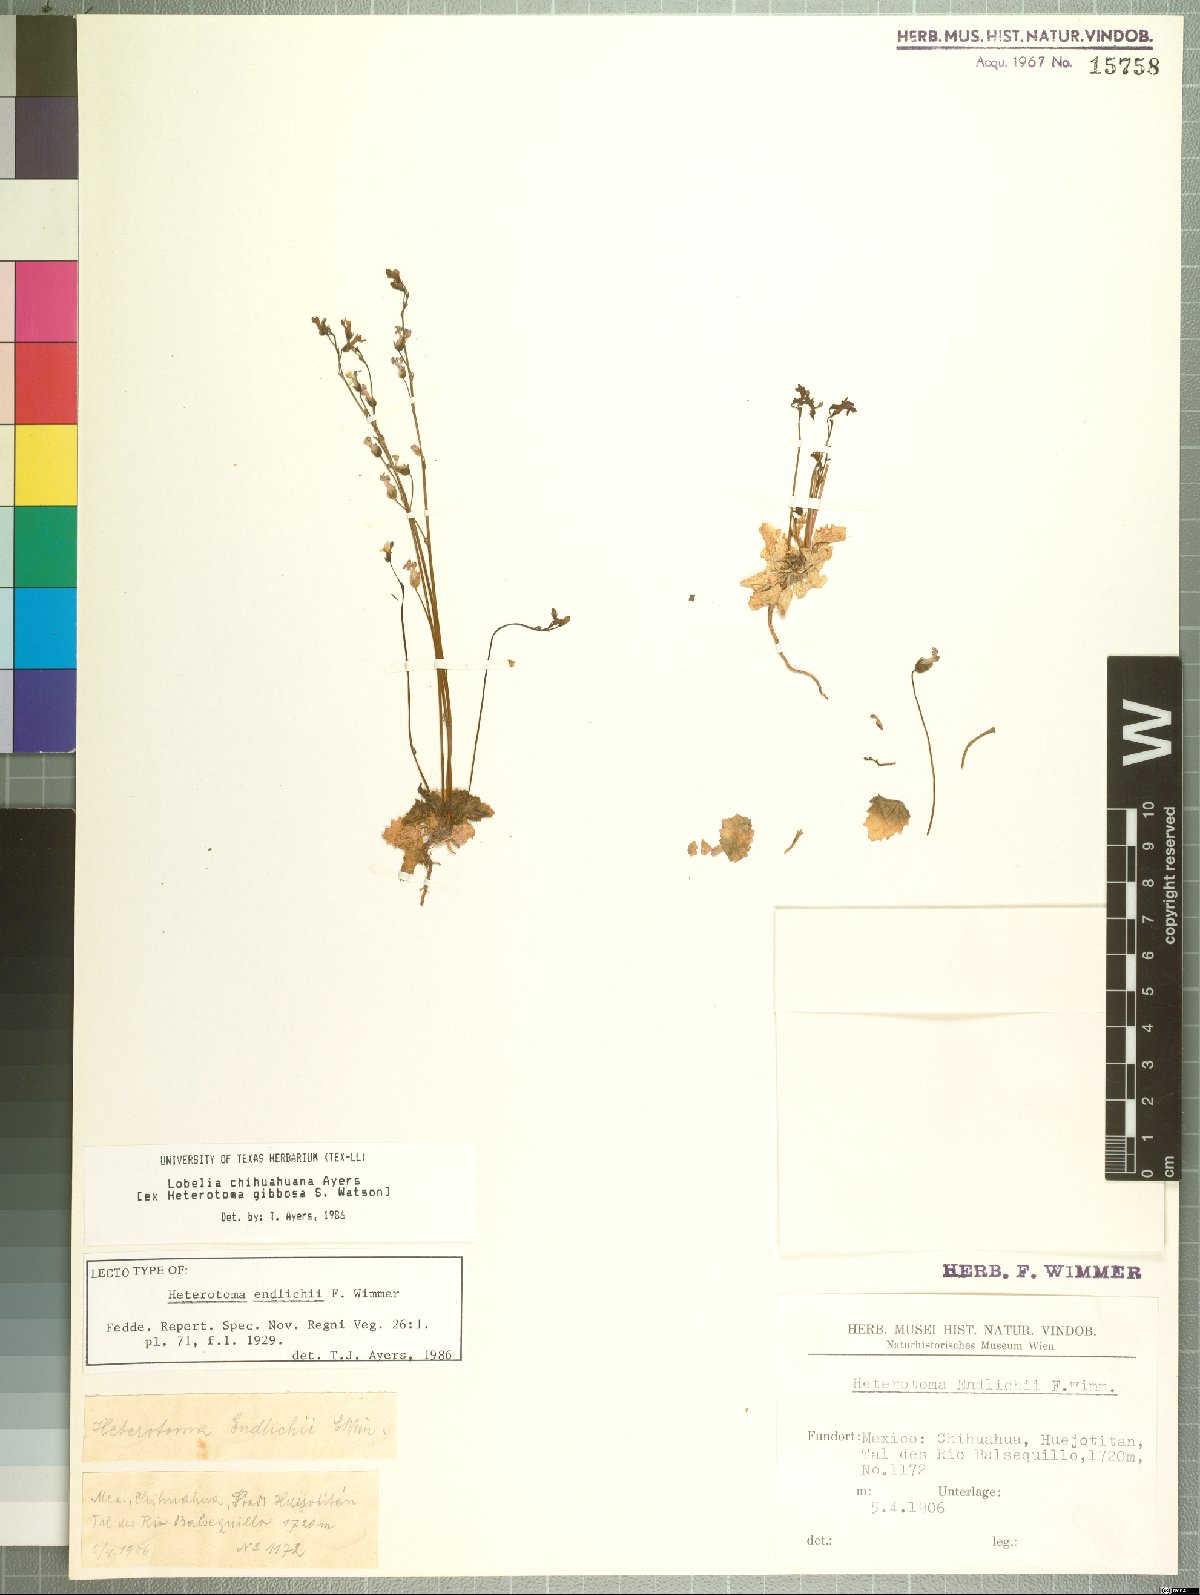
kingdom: Plantae
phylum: Tracheophyta
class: Magnoliopsida
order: Asterales
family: Campanulaceae
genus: Lobelia
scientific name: Lobelia endlichii
